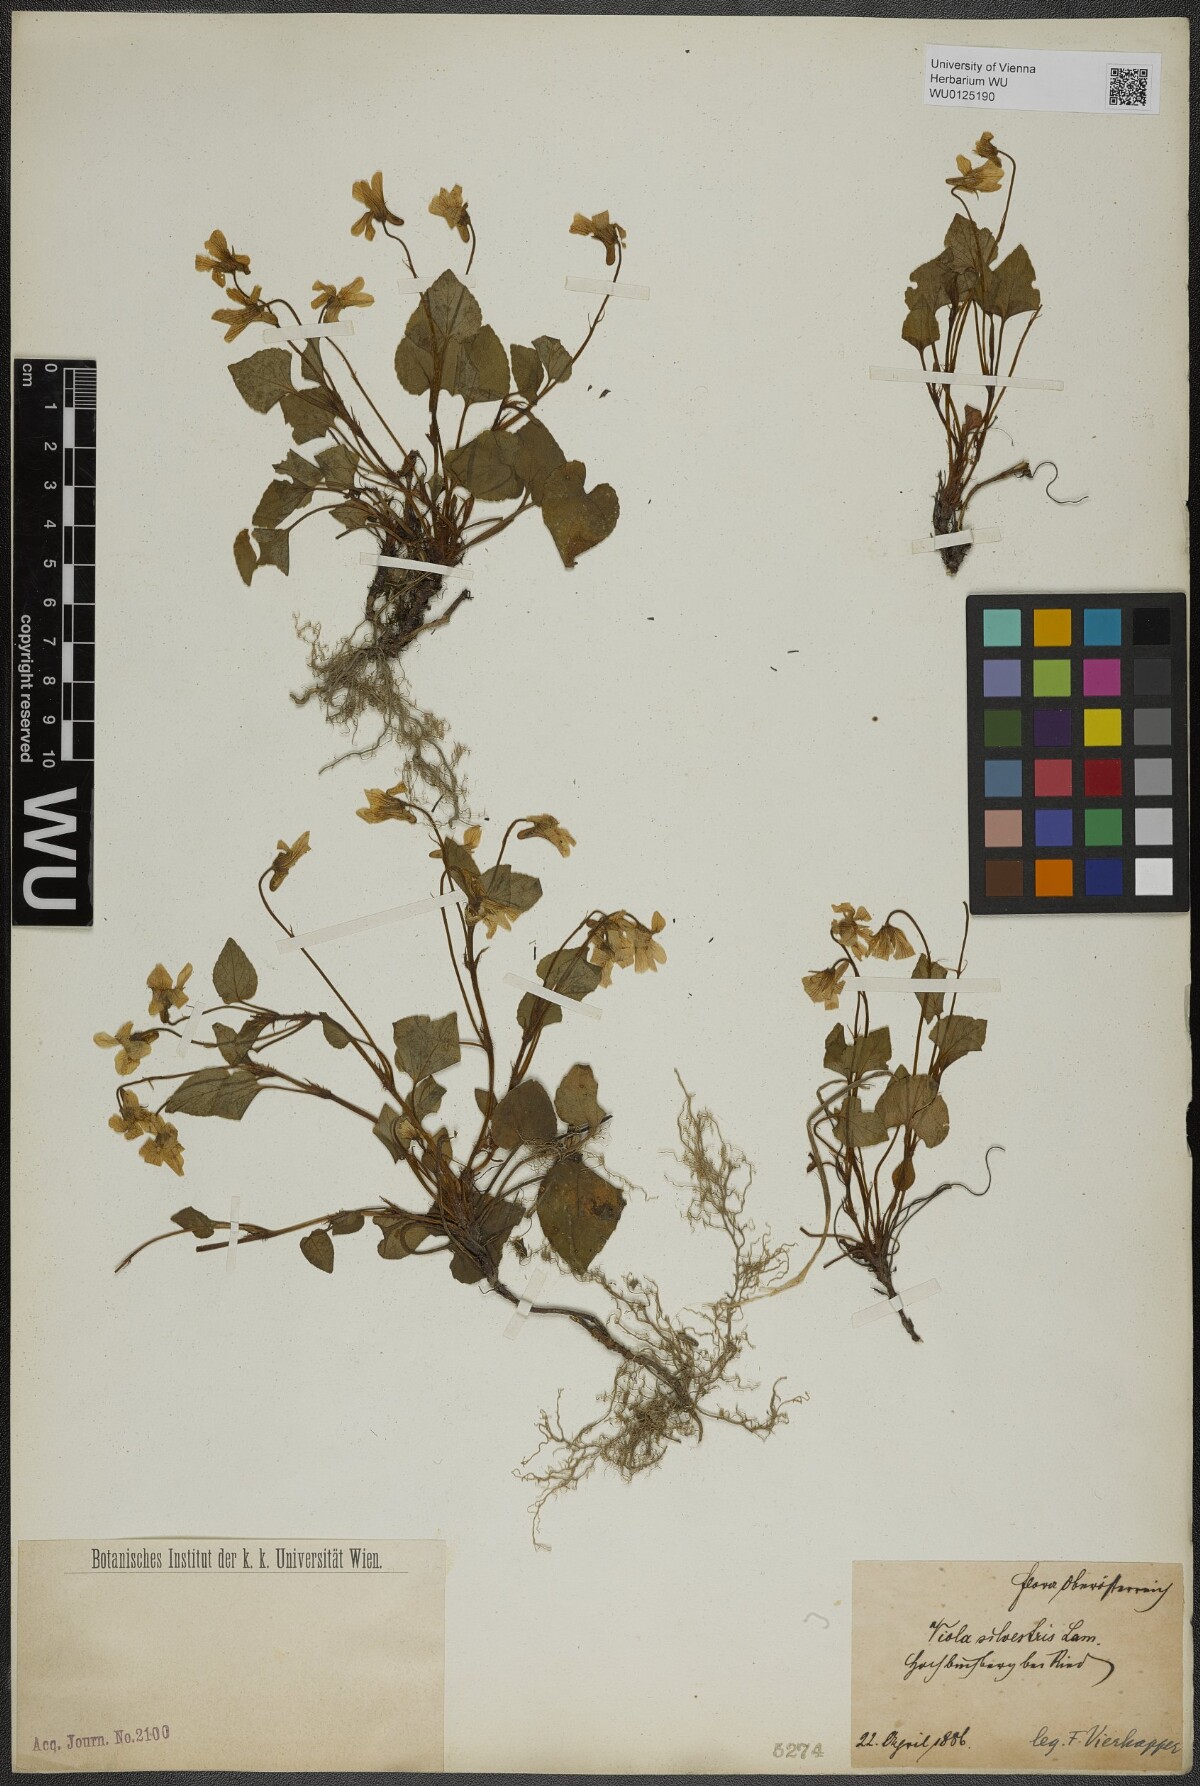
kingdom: Plantae
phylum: Tracheophyta
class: Magnoliopsida
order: Malpighiales
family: Violaceae
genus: Viola
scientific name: Viola reichenbachiana
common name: Early dog-violet
